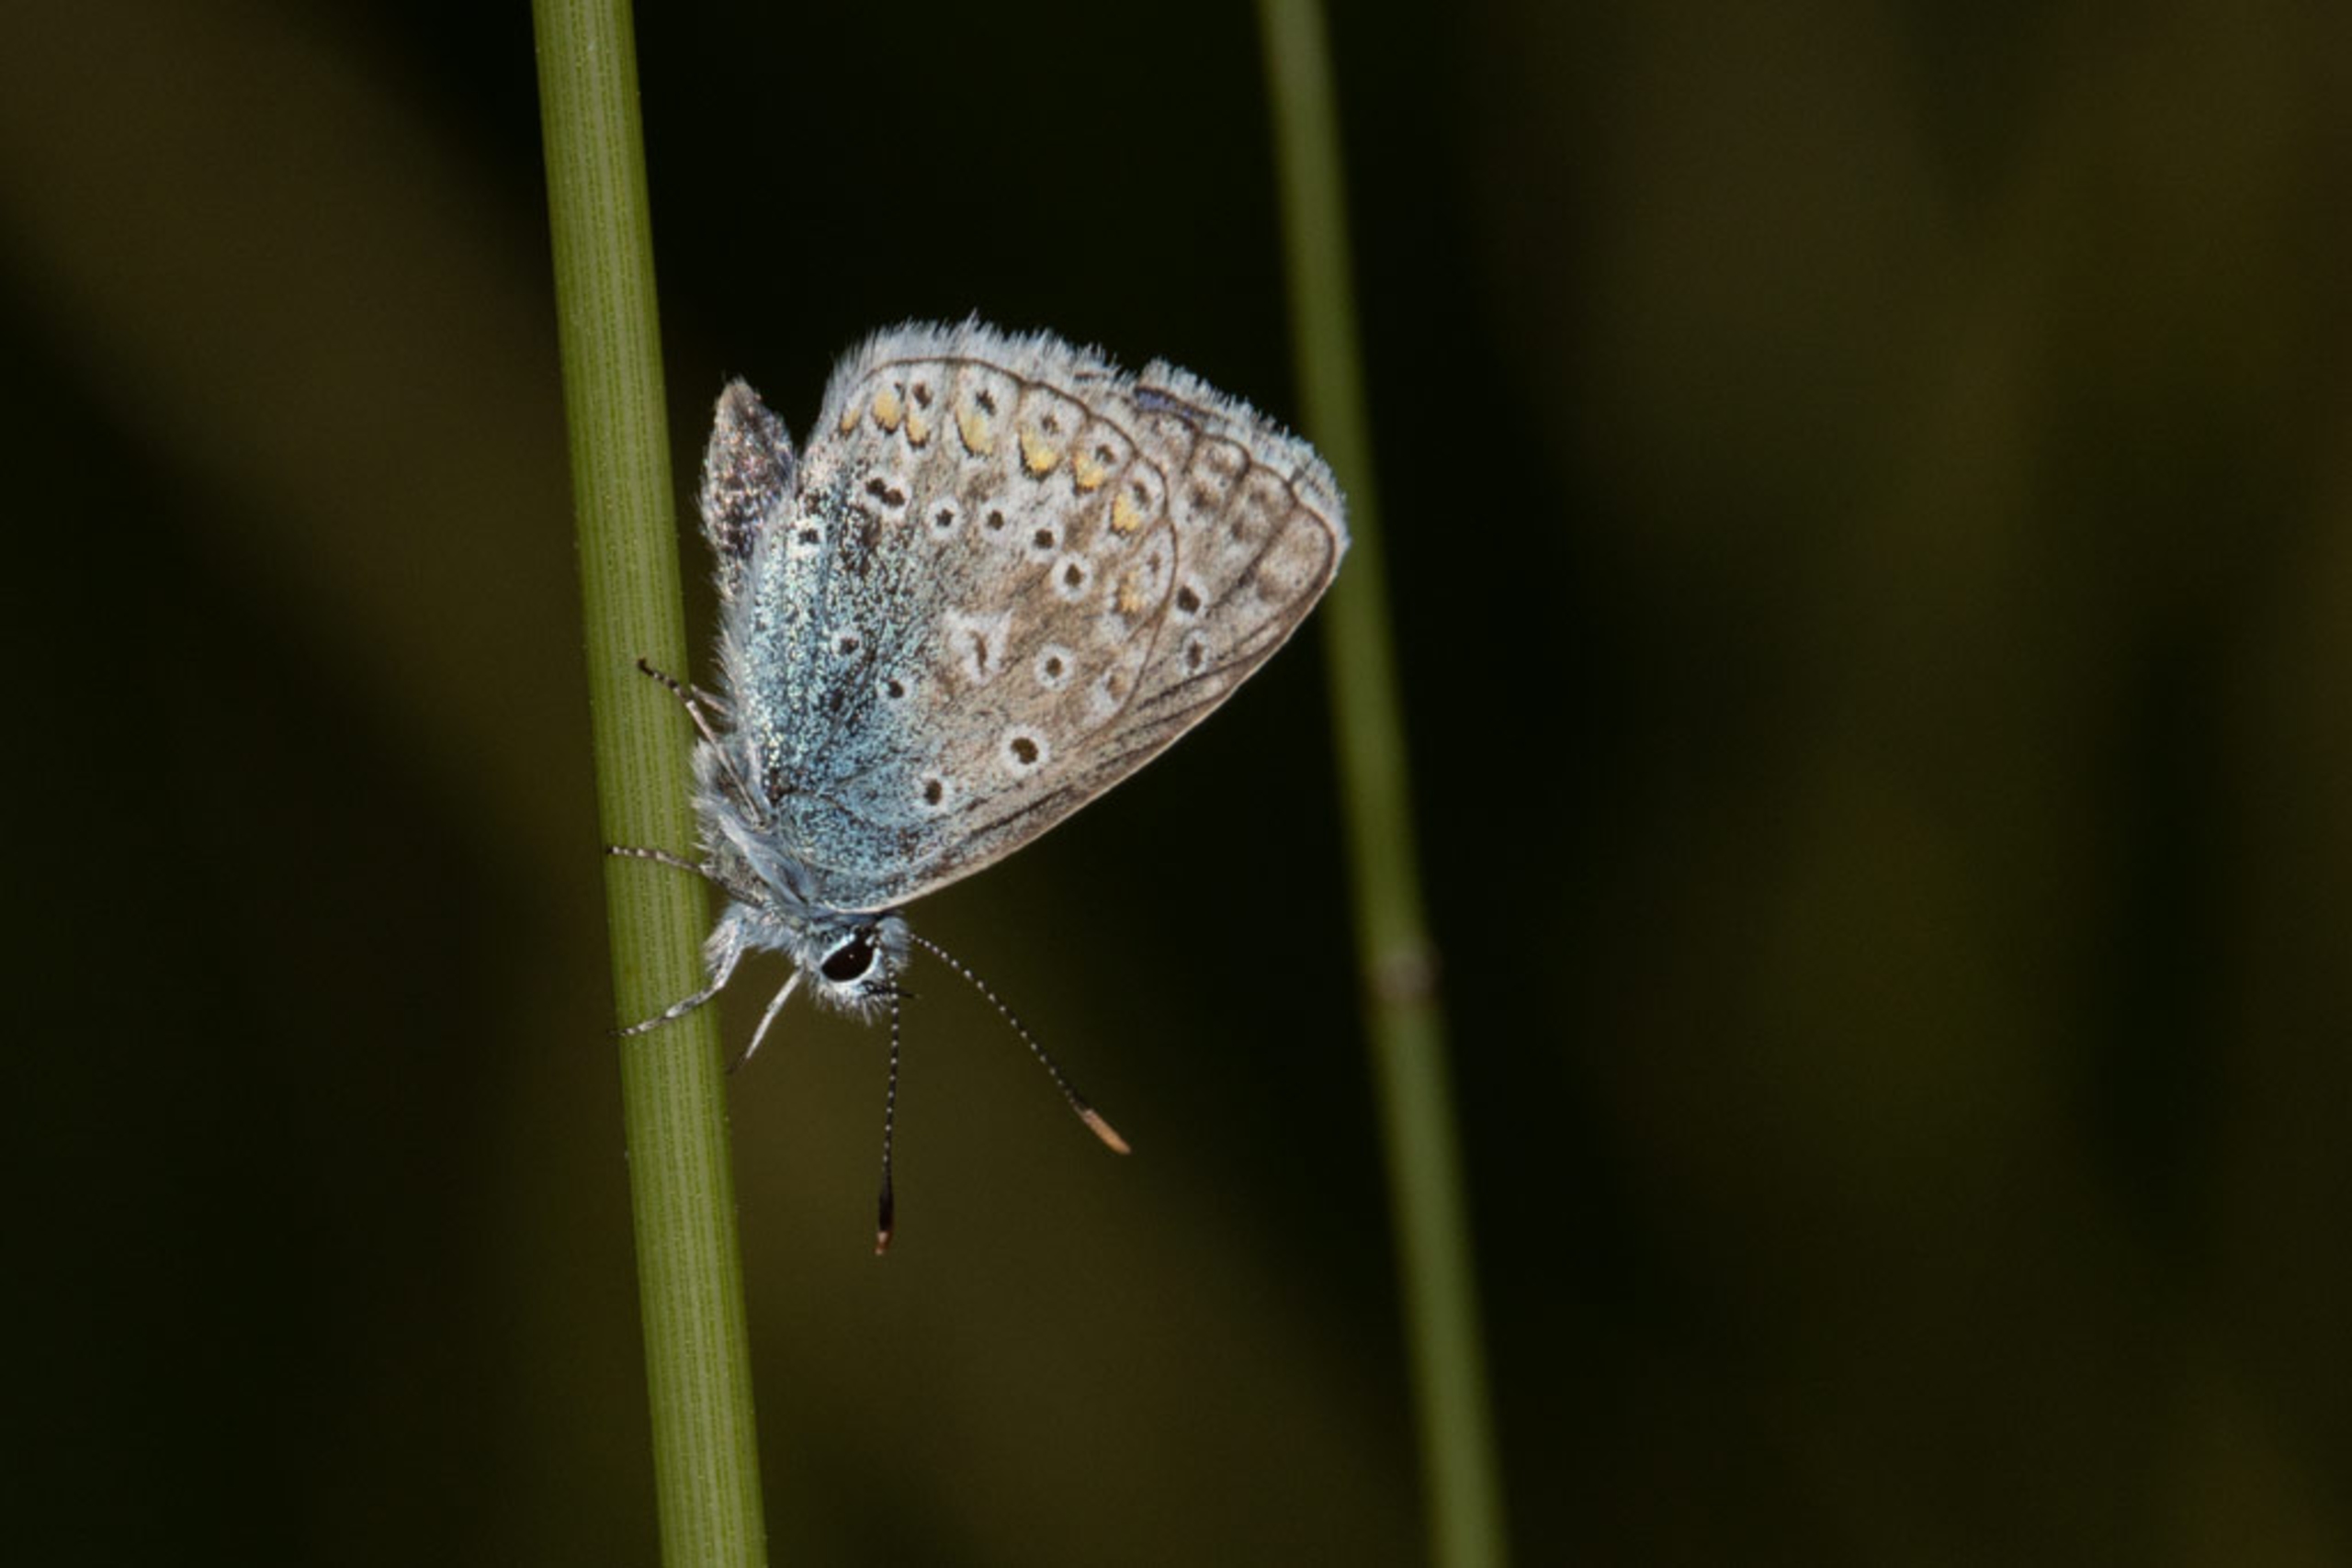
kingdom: Animalia
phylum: Arthropoda
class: Insecta
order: Lepidoptera
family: Lycaenidae
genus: Polyommatus
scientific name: Polyommatus icarus
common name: Almindelig blåfugl
